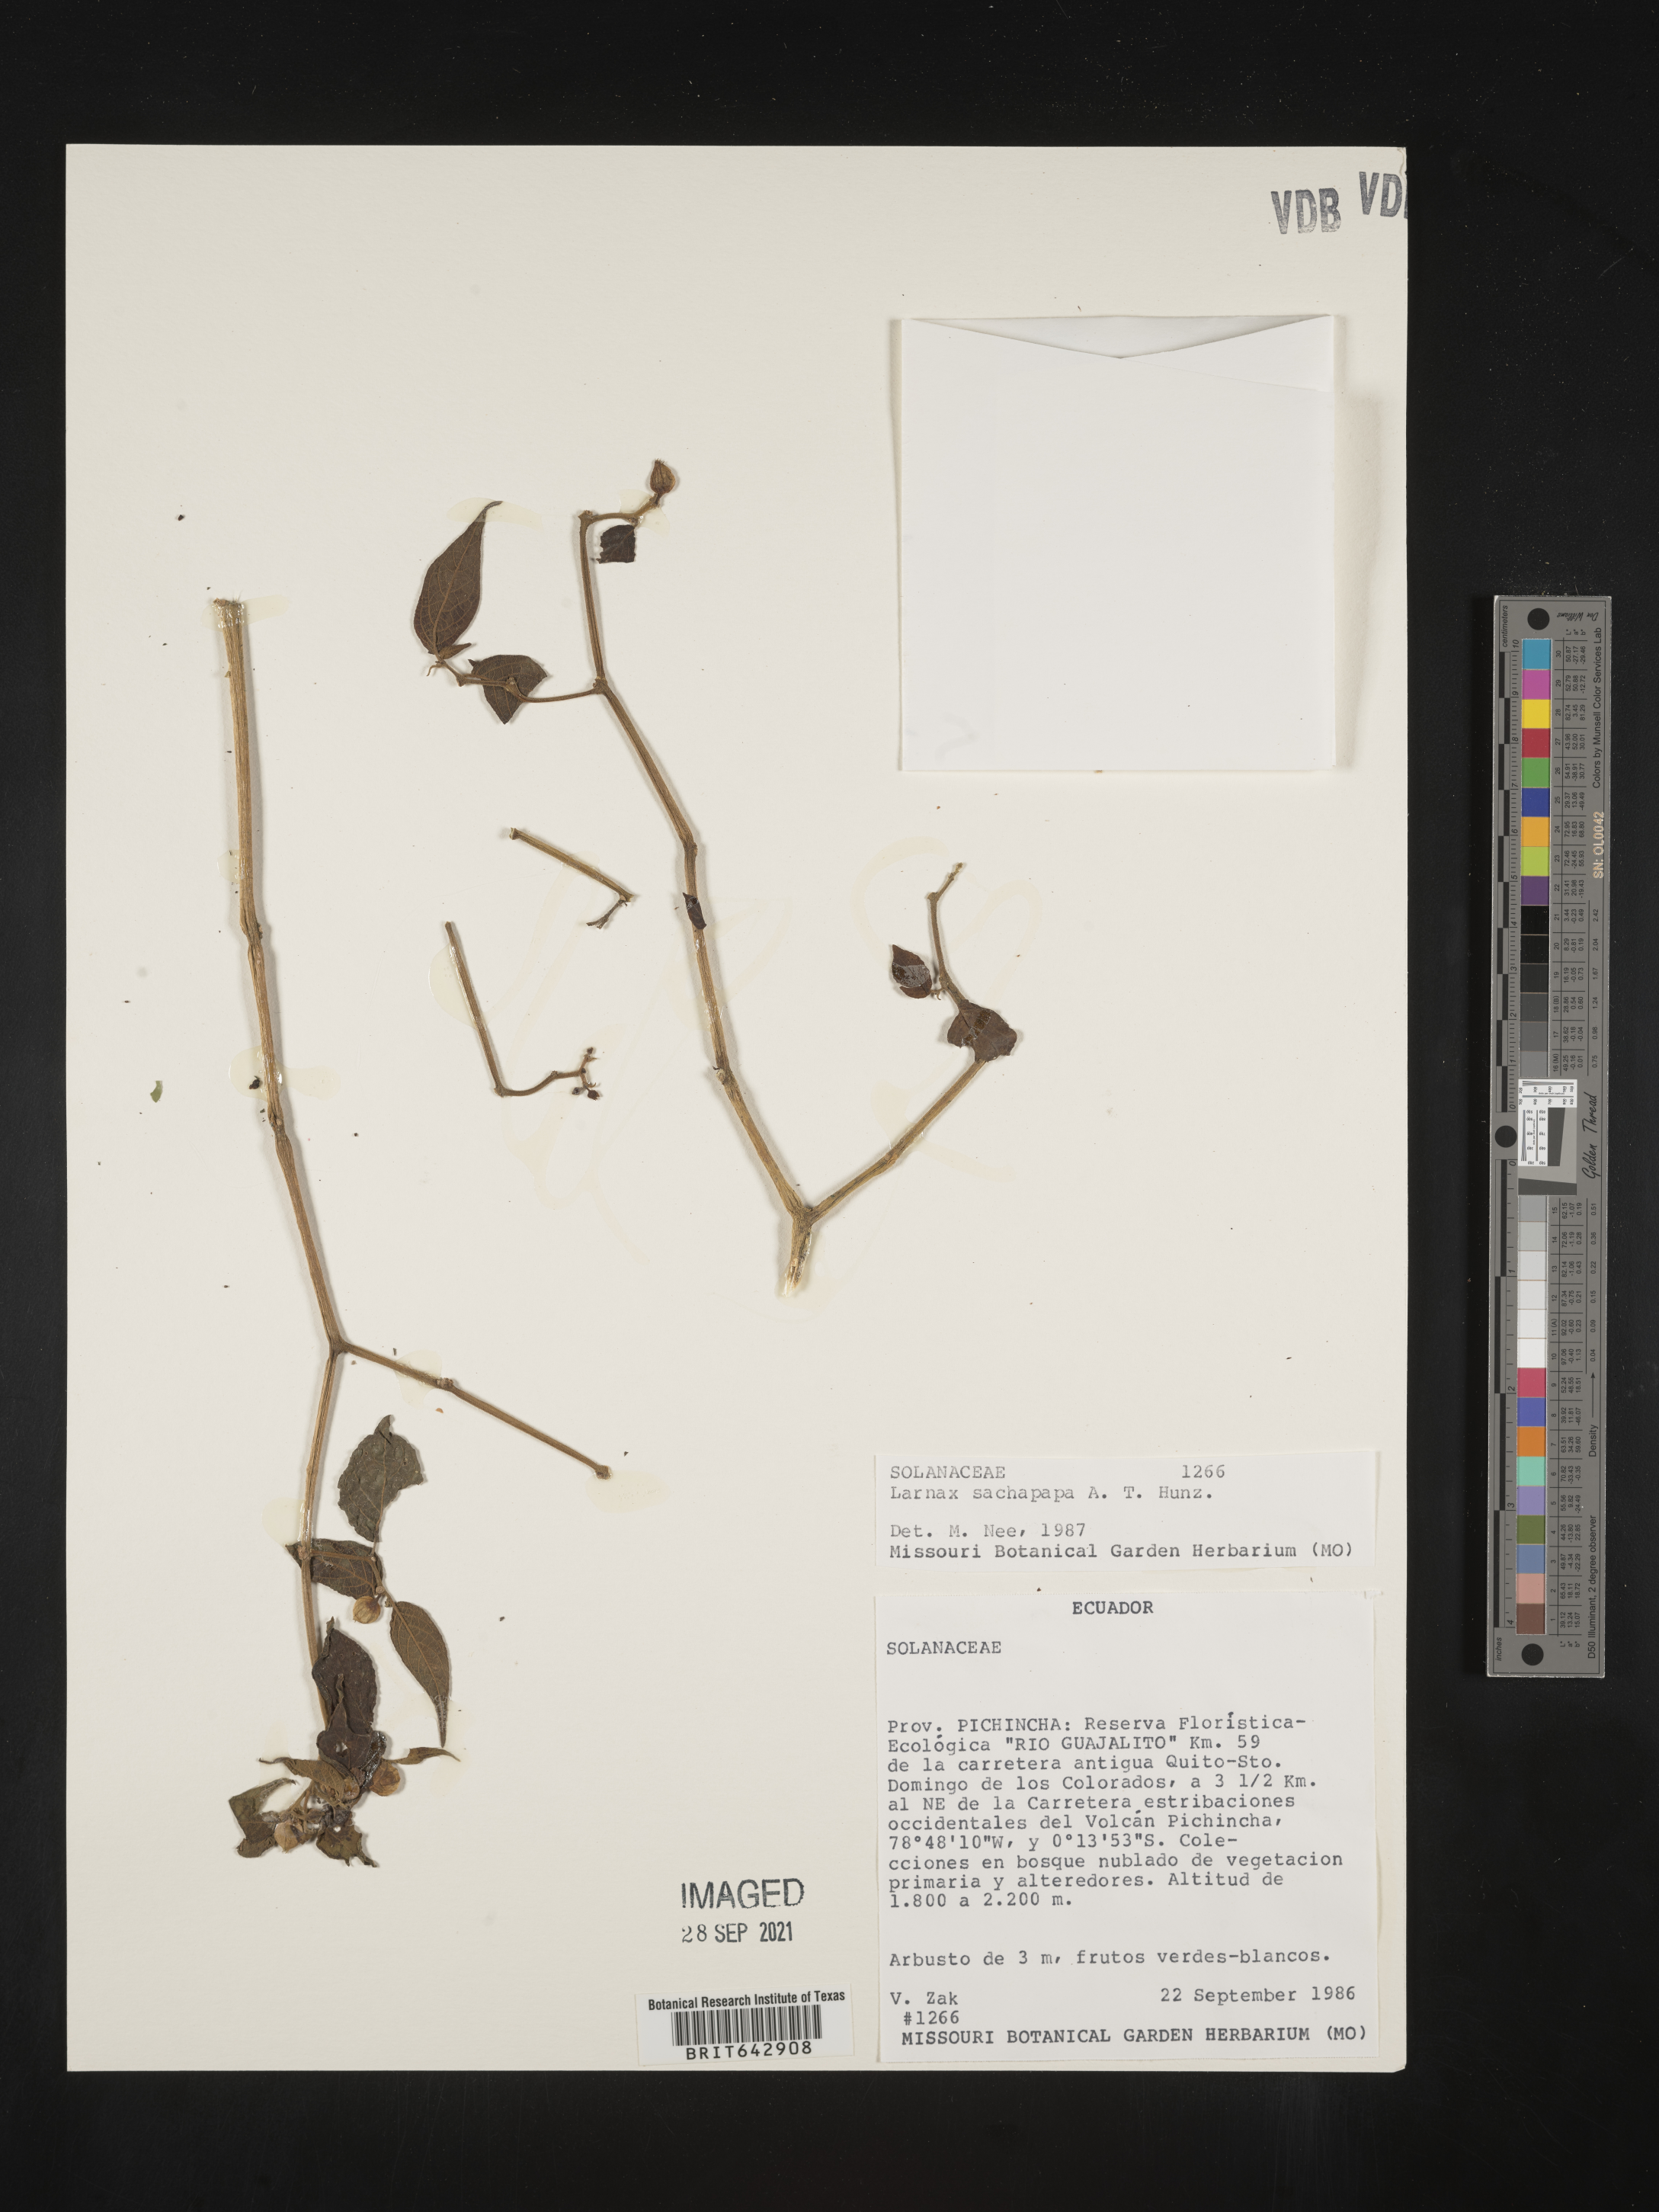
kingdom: Plantae
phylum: Tracheophyta
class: Magnoliopsida
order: Solanales
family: Solanaceae
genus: Deprea
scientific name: Deprea
